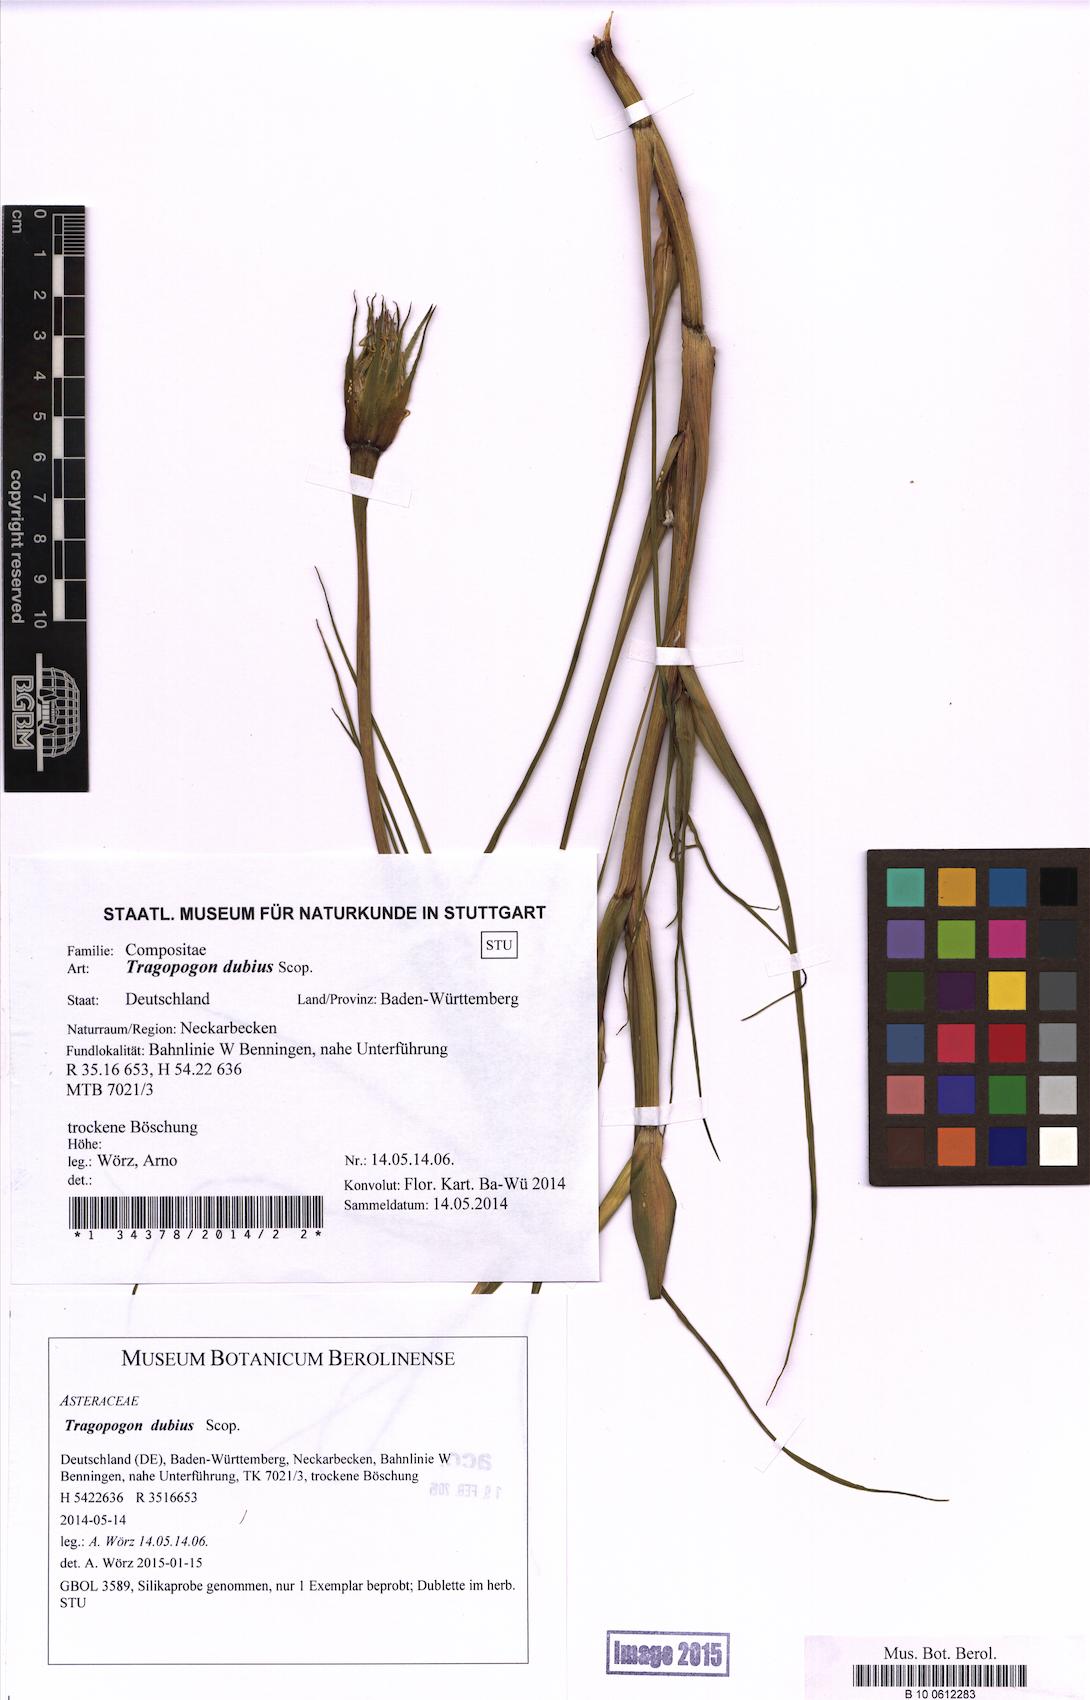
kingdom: Plantae
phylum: Tracheophyta
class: Magnoliopsida
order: Asterales
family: Asteraceae
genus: Tragopogon
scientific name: Tragopogon dubius
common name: Yellow salsify
